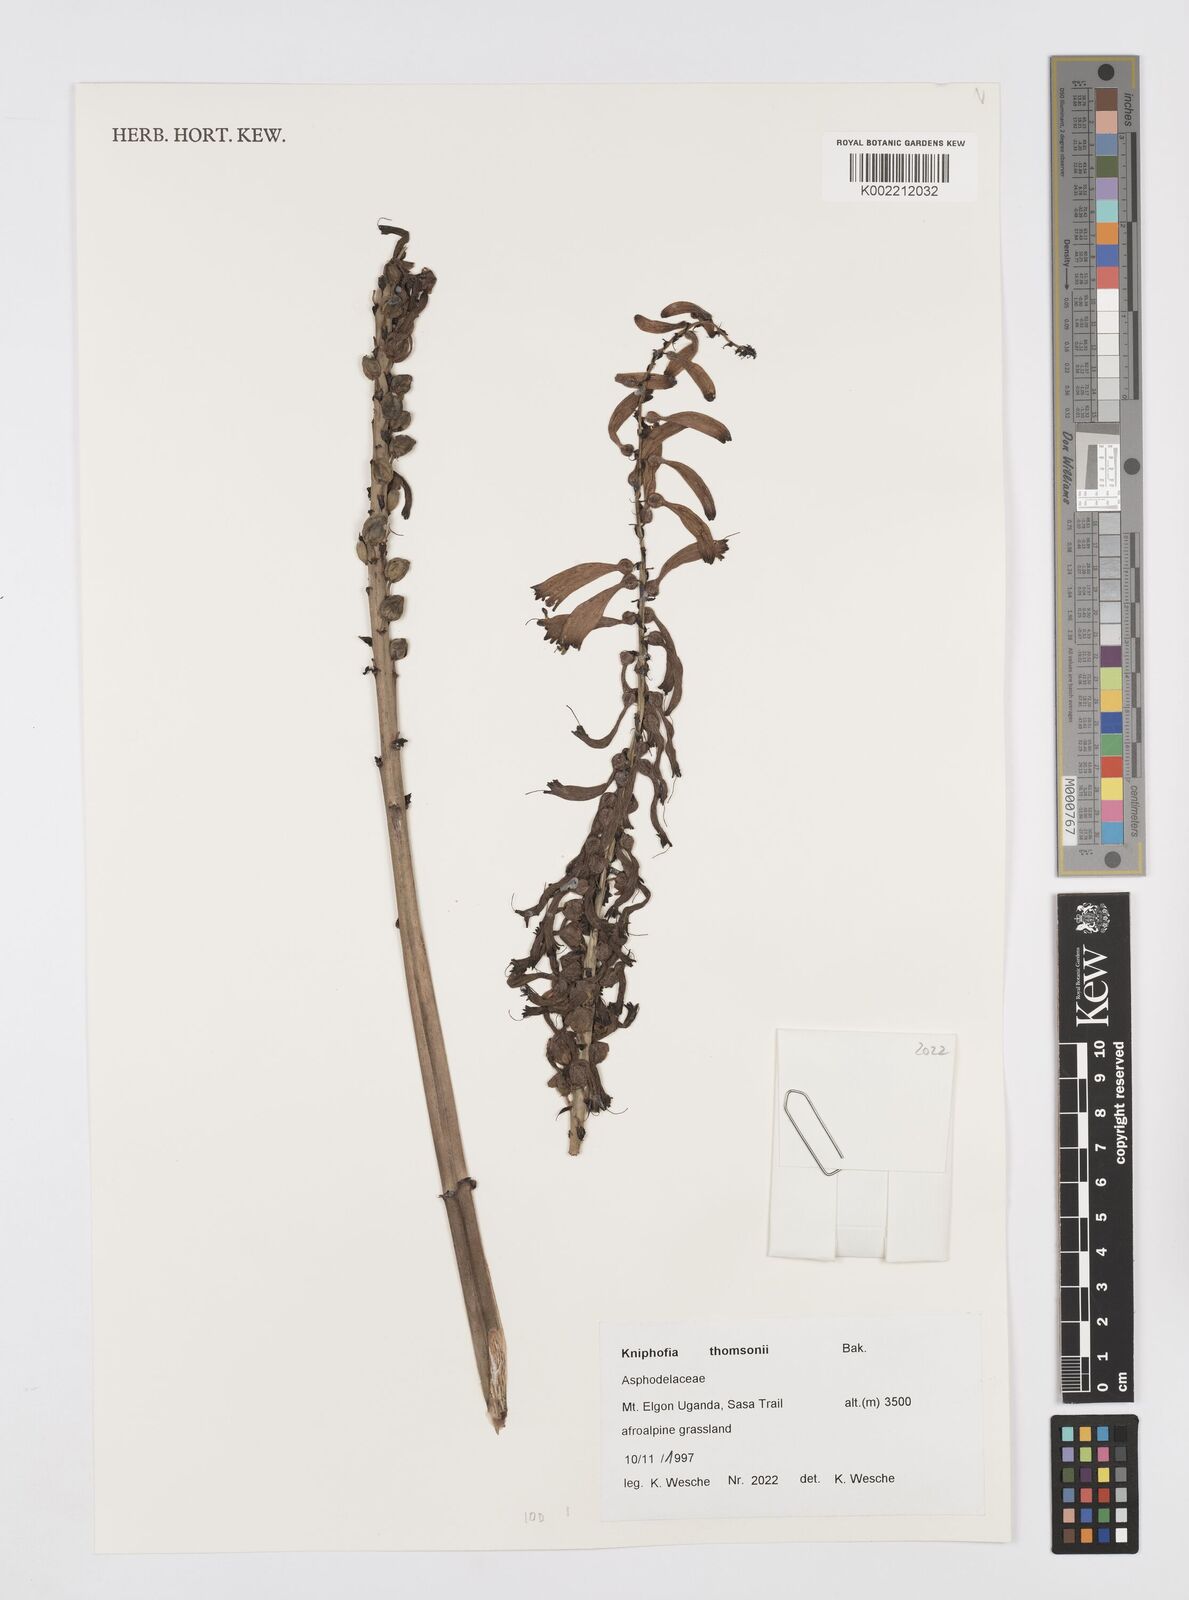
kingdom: Plantae
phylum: Tracheophyta
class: Liliopsida
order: Asparagales
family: Asphodelaceae
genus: Kniphofia
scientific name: Kniphofia thomsonii
